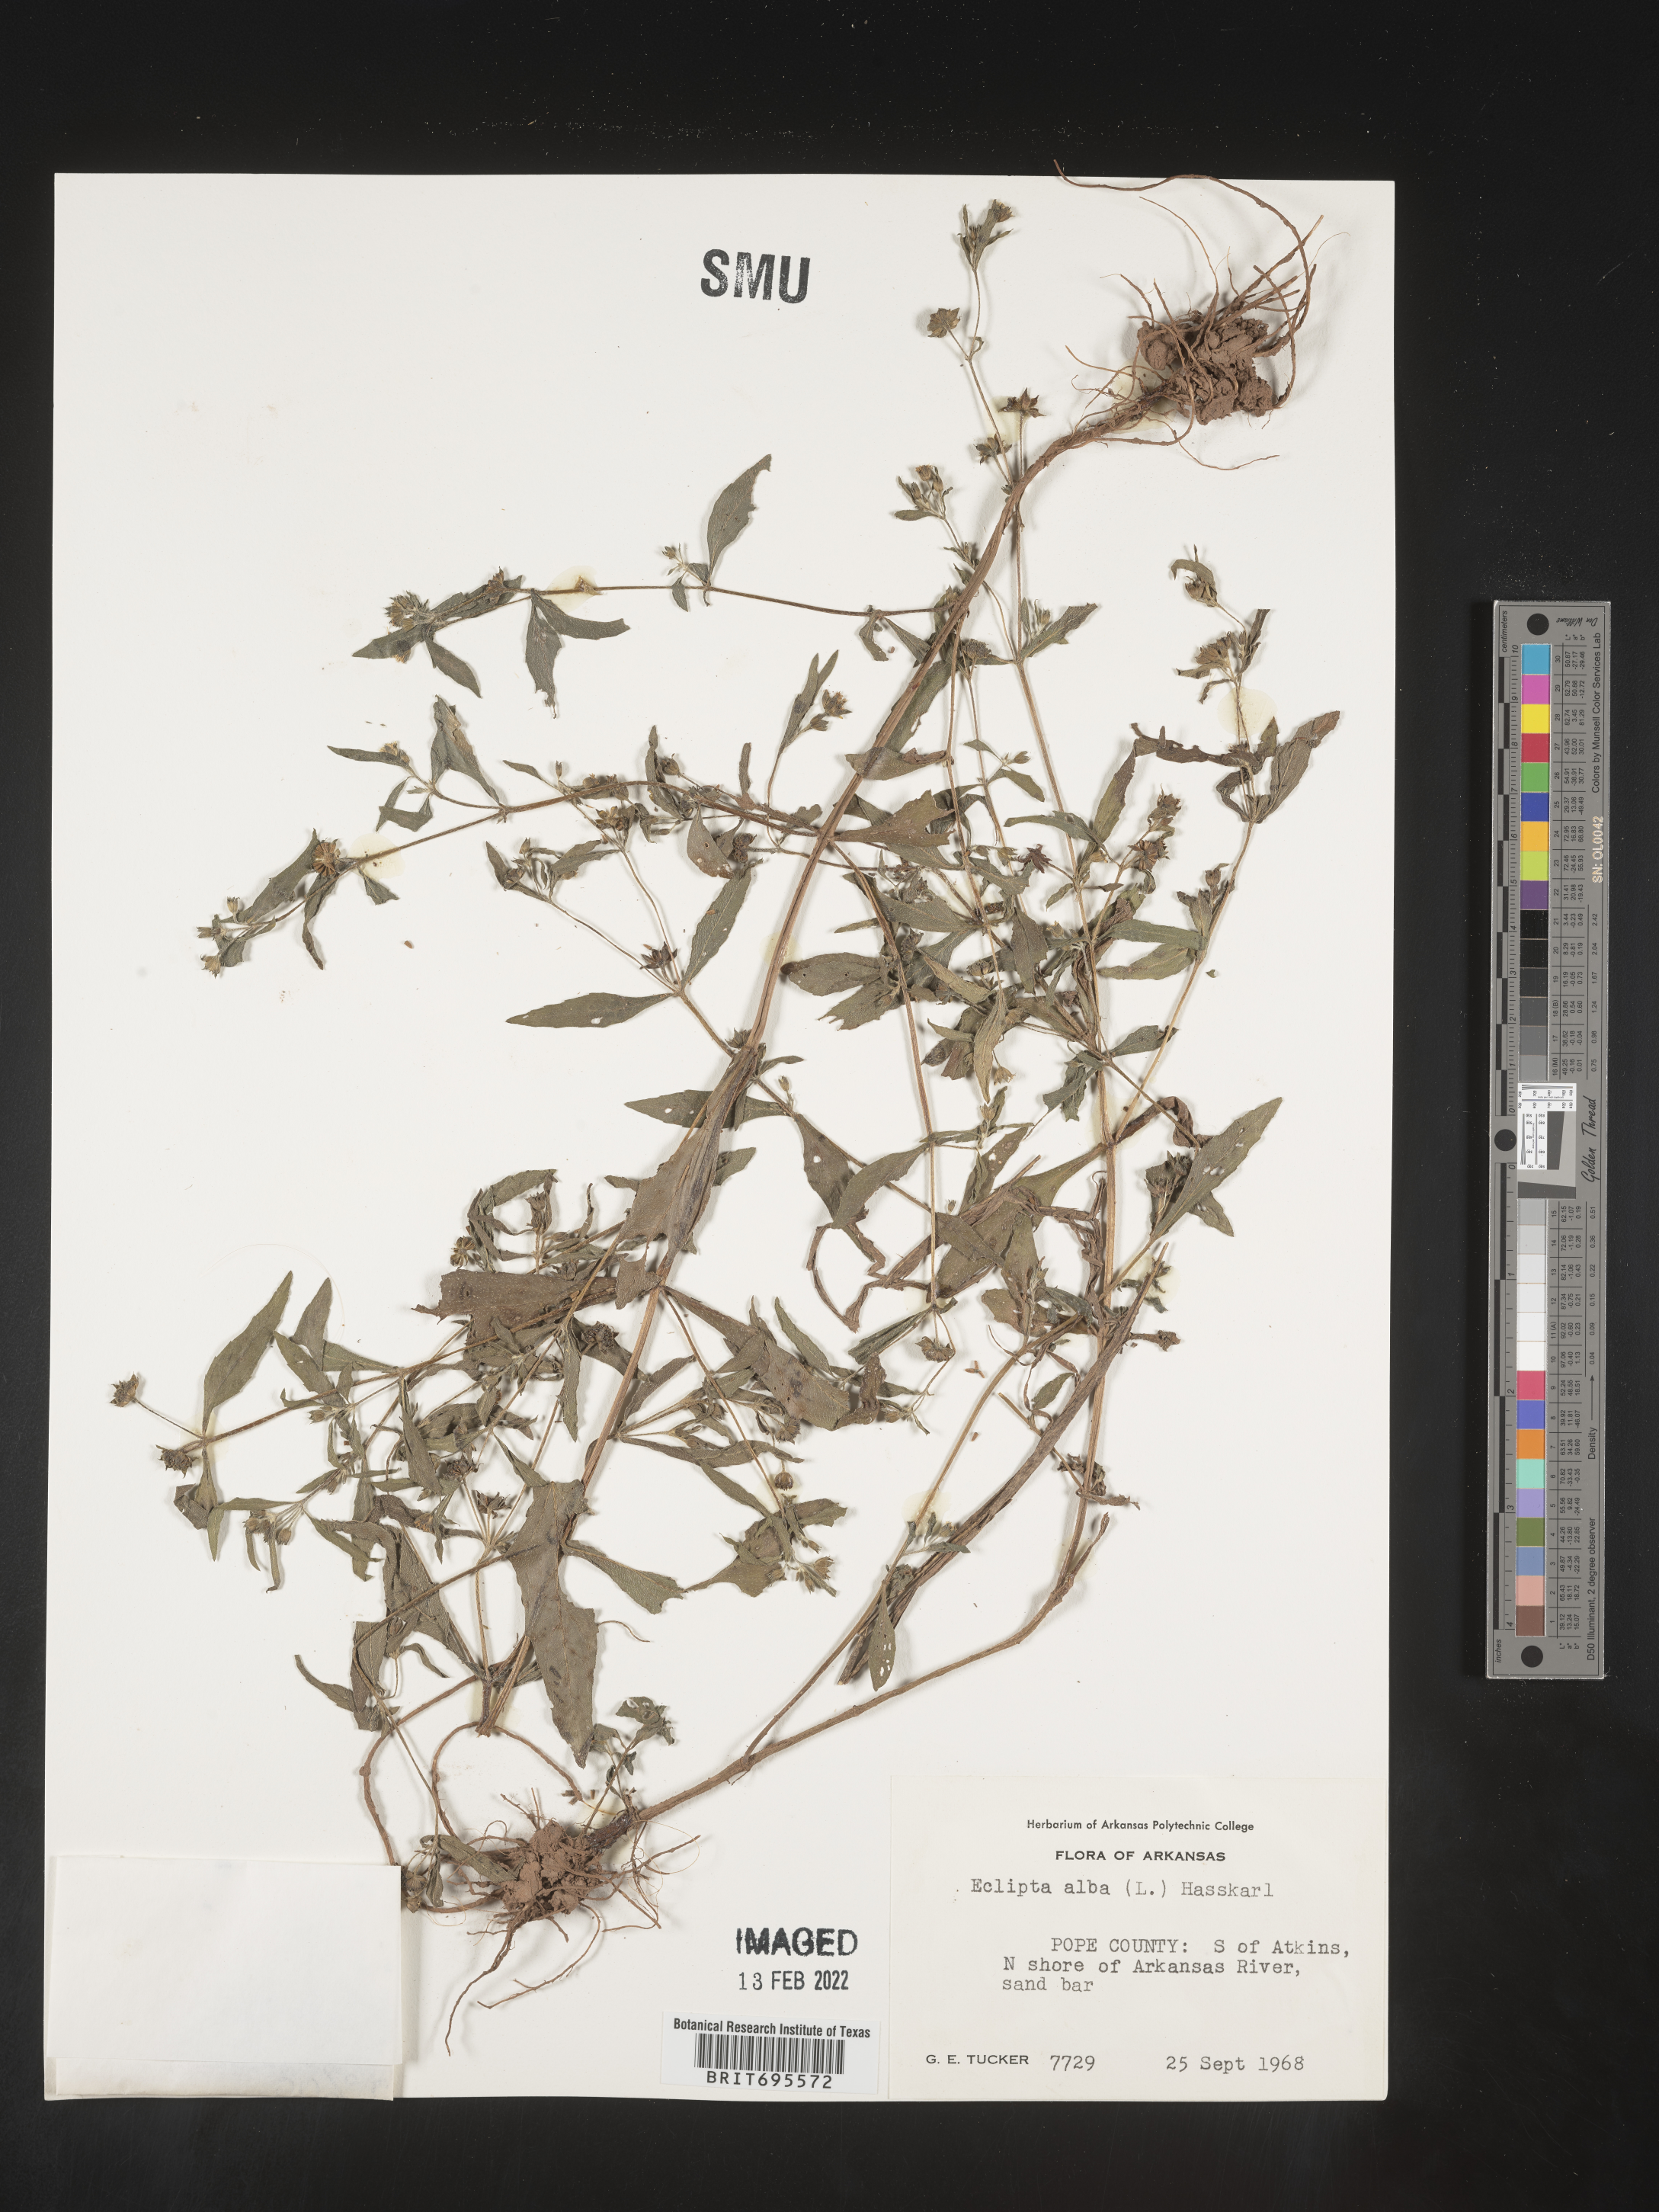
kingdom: Plantae
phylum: Tracheophyta
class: Magnoliopsida
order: Asterales
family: Asteraceae
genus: Eclipta
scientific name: Eclipta alba
